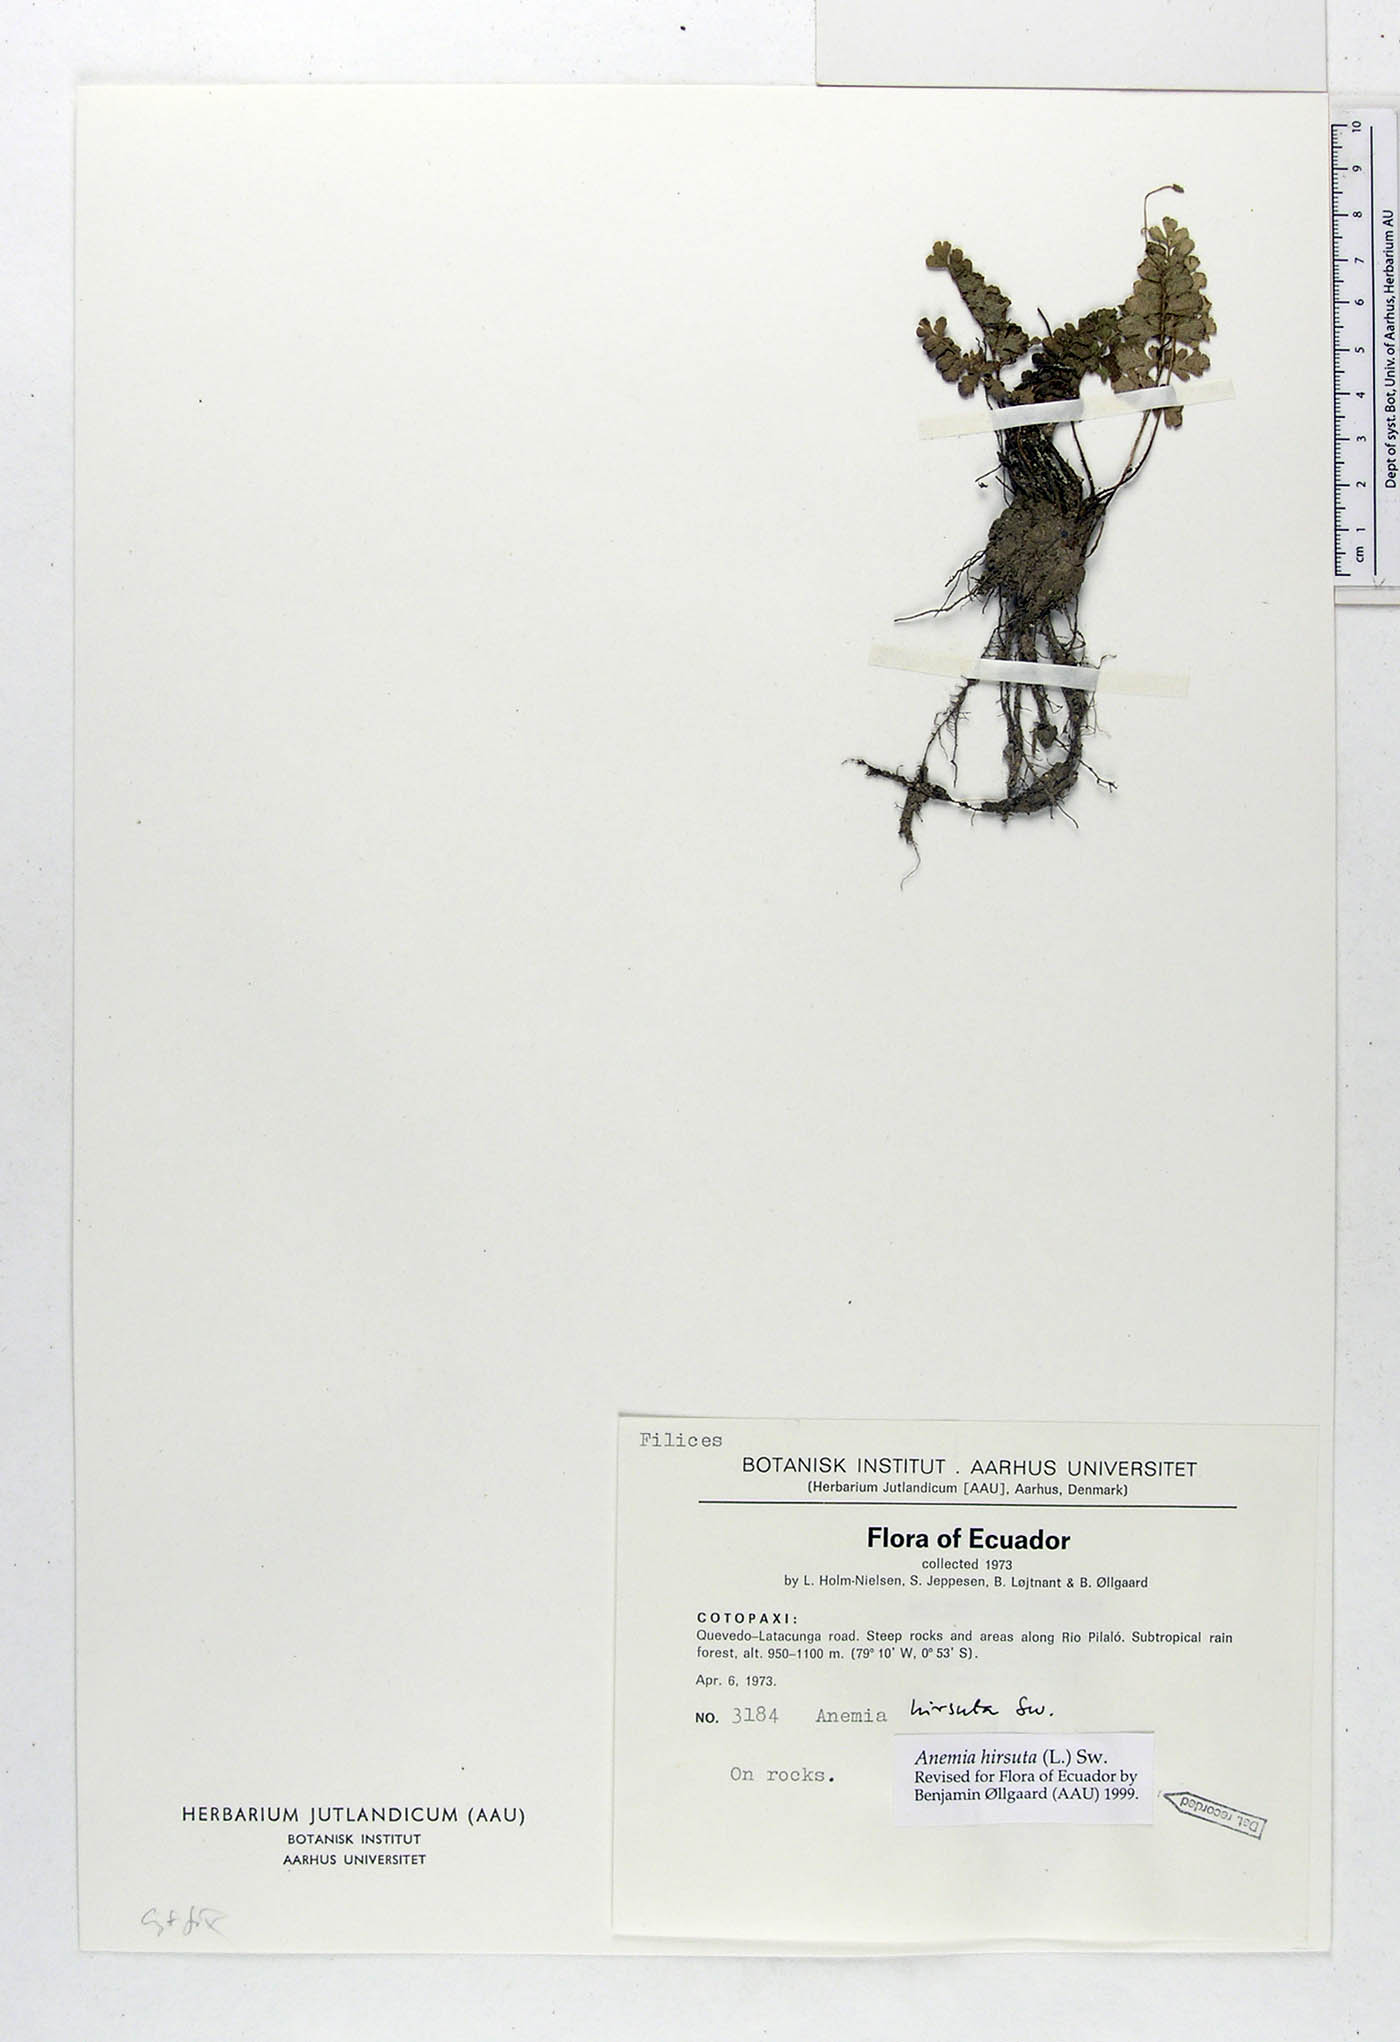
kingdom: Plantae
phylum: Tracheophyta
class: Polypodiopsida
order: Schizaeales
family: Anemiaceae
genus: Anemia
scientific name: Anemia hirsuta
